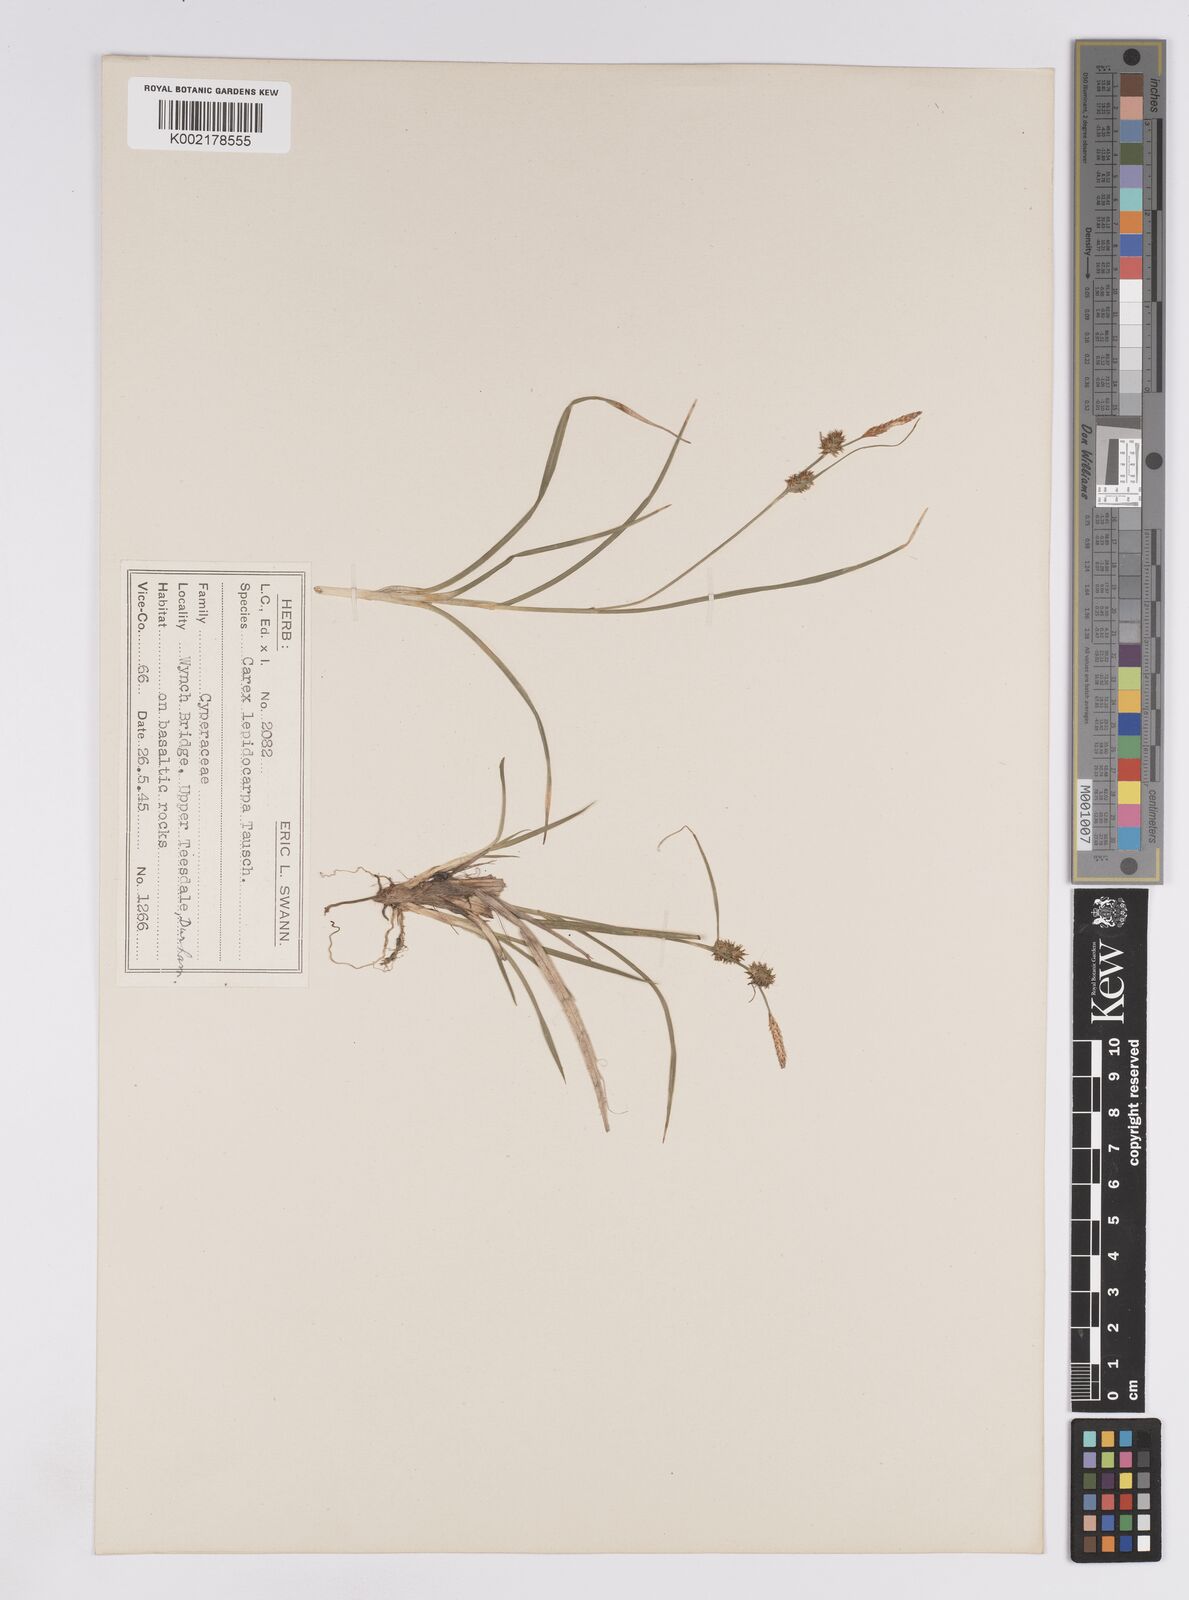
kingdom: Plantae
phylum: Tracheophyta
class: Liliopsida
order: Poales
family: Cyperaceae
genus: Carex
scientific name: Carex lepidocarpa
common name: Long-stalked yellow-sedge
